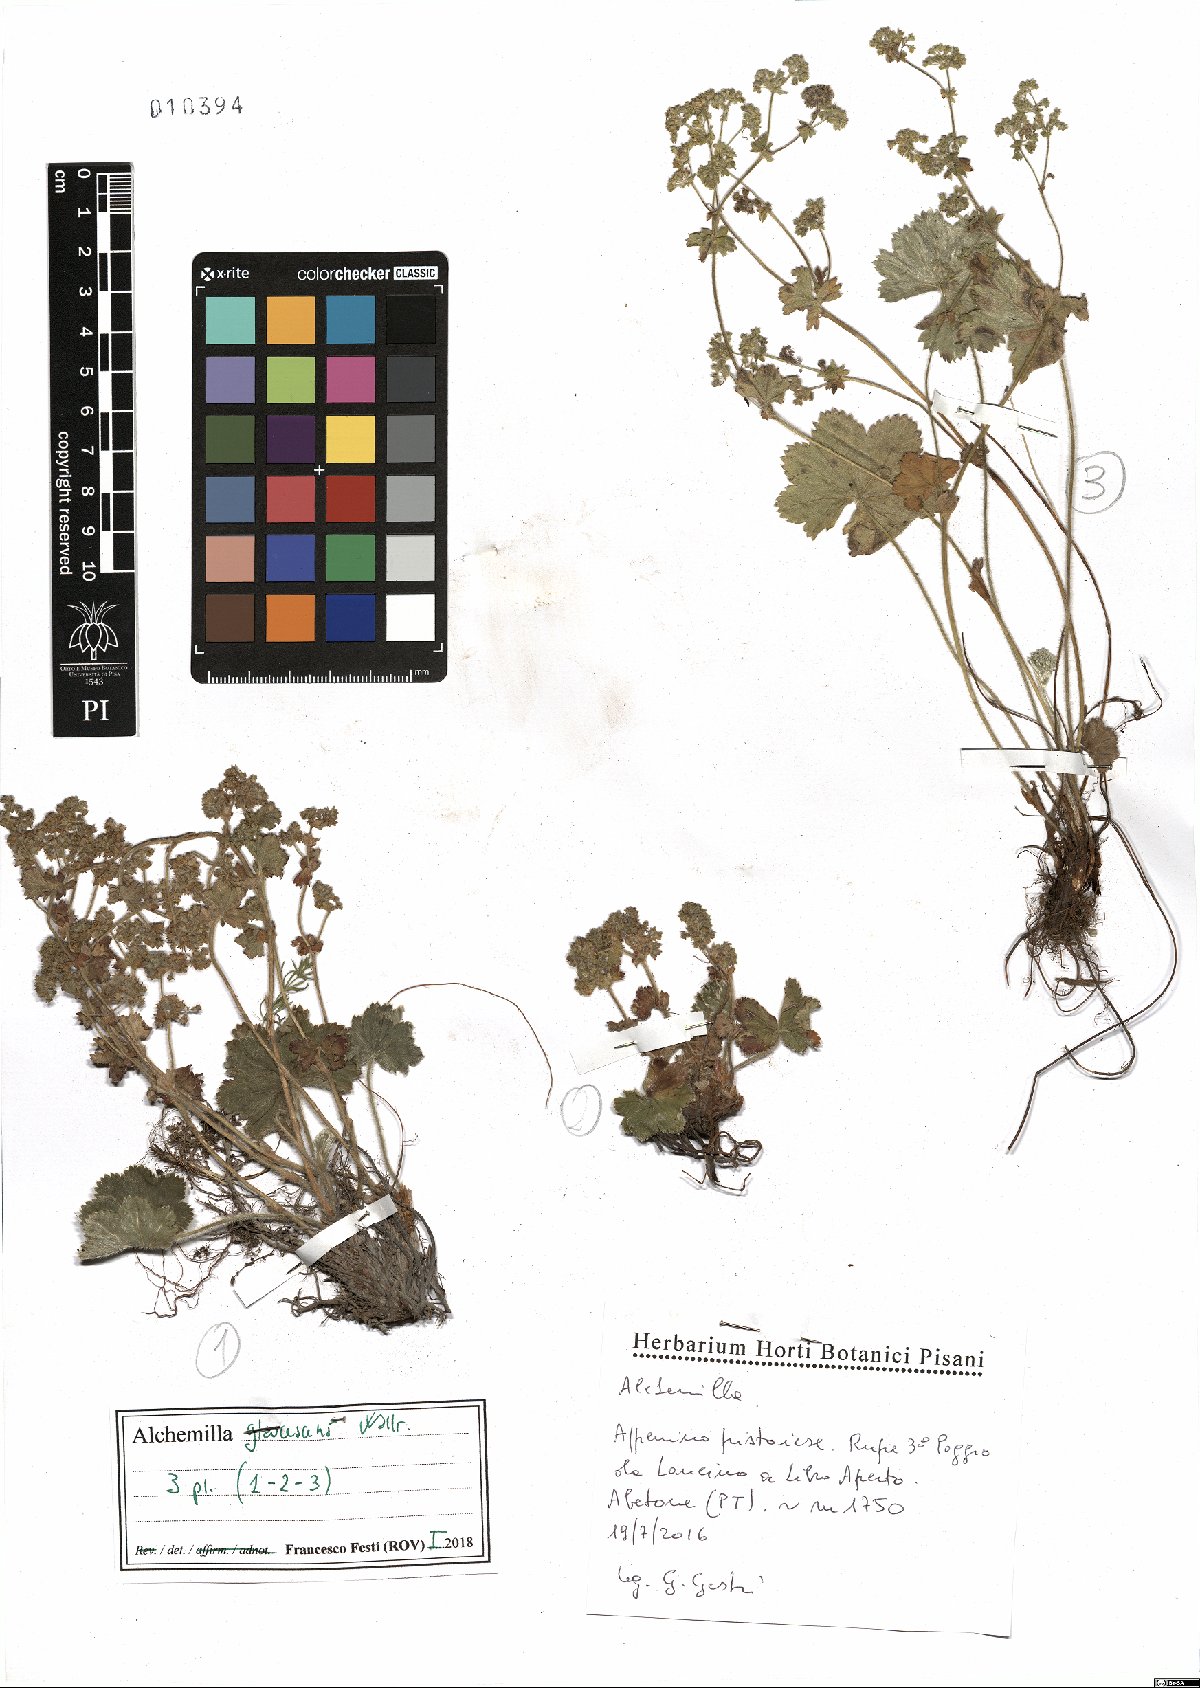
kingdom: Plantae
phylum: Tracheophyta
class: Magnoliopsida
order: Rosales
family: Rosaceae
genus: Alchemilla
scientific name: Alchemilla glaucescens
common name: Silky lady's mantle
